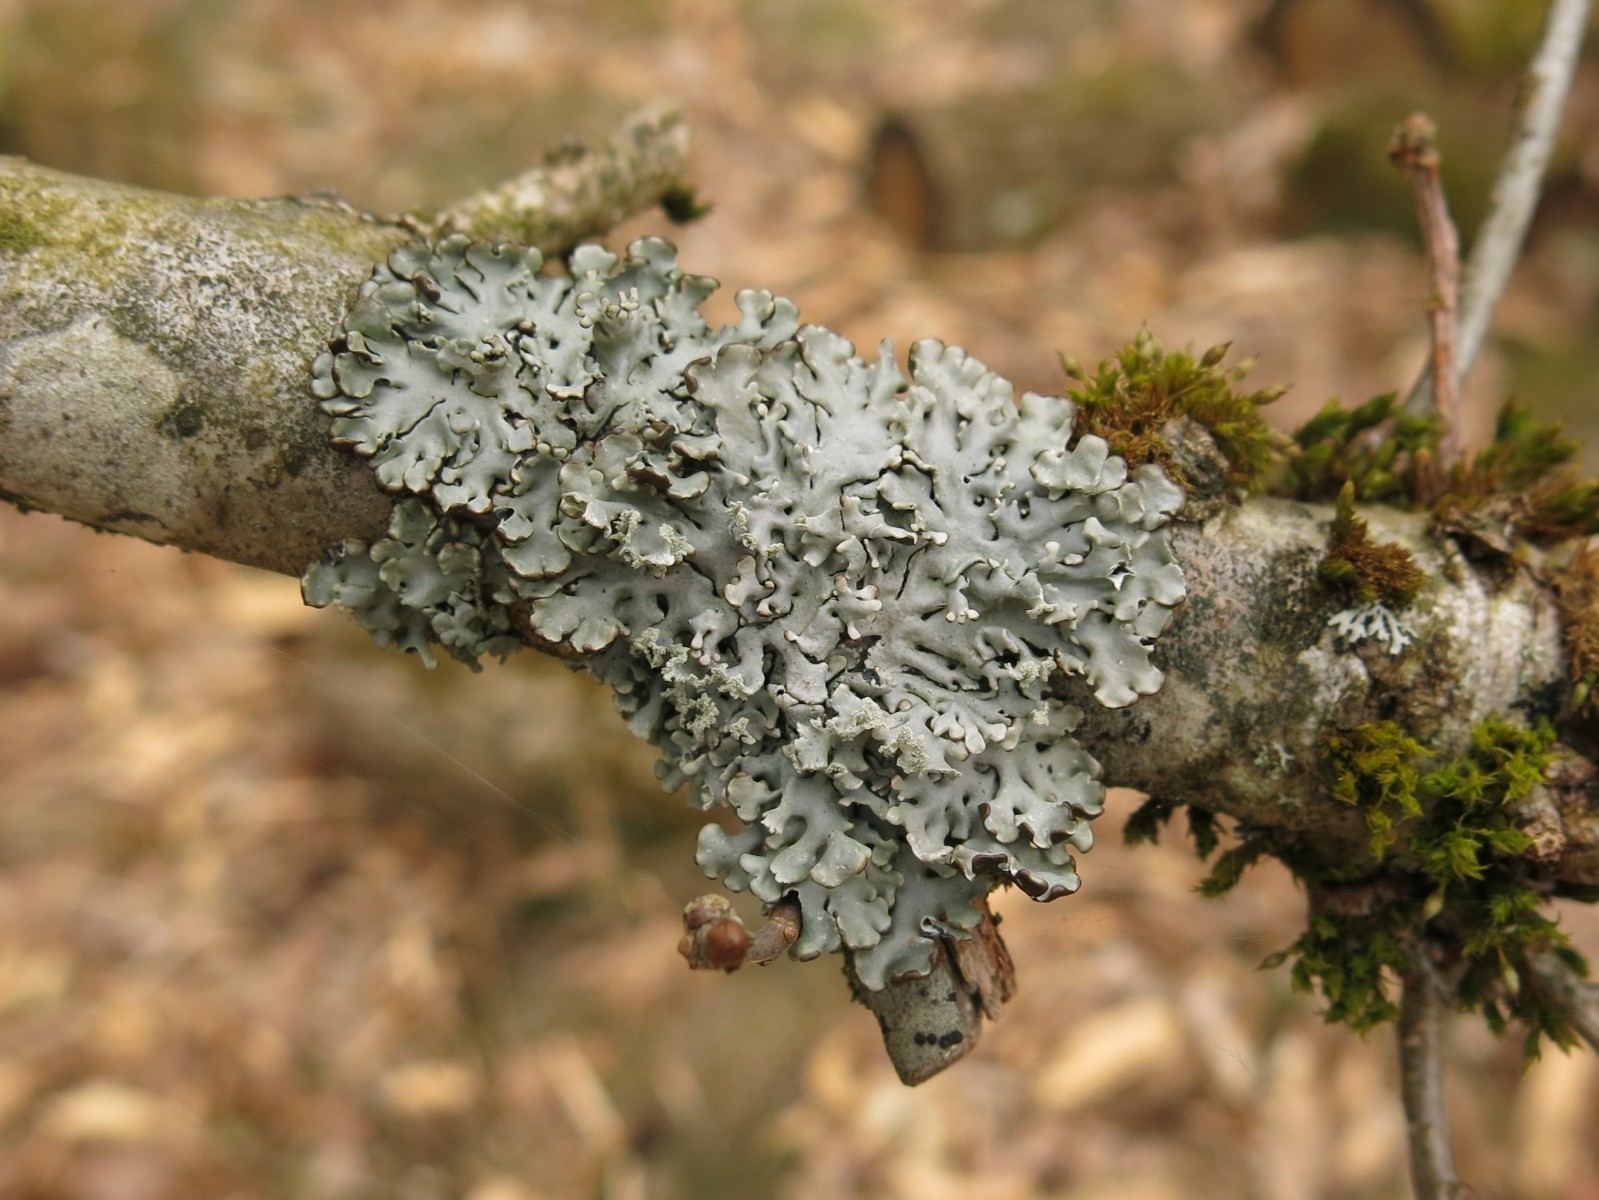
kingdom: Fungi
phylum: Ascomycota
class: Lecanoromycetes
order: Lecanorales
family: Parmeliaceae
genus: Hypogymnia
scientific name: Hypogymnia physodes
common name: almindelig kvistlav
